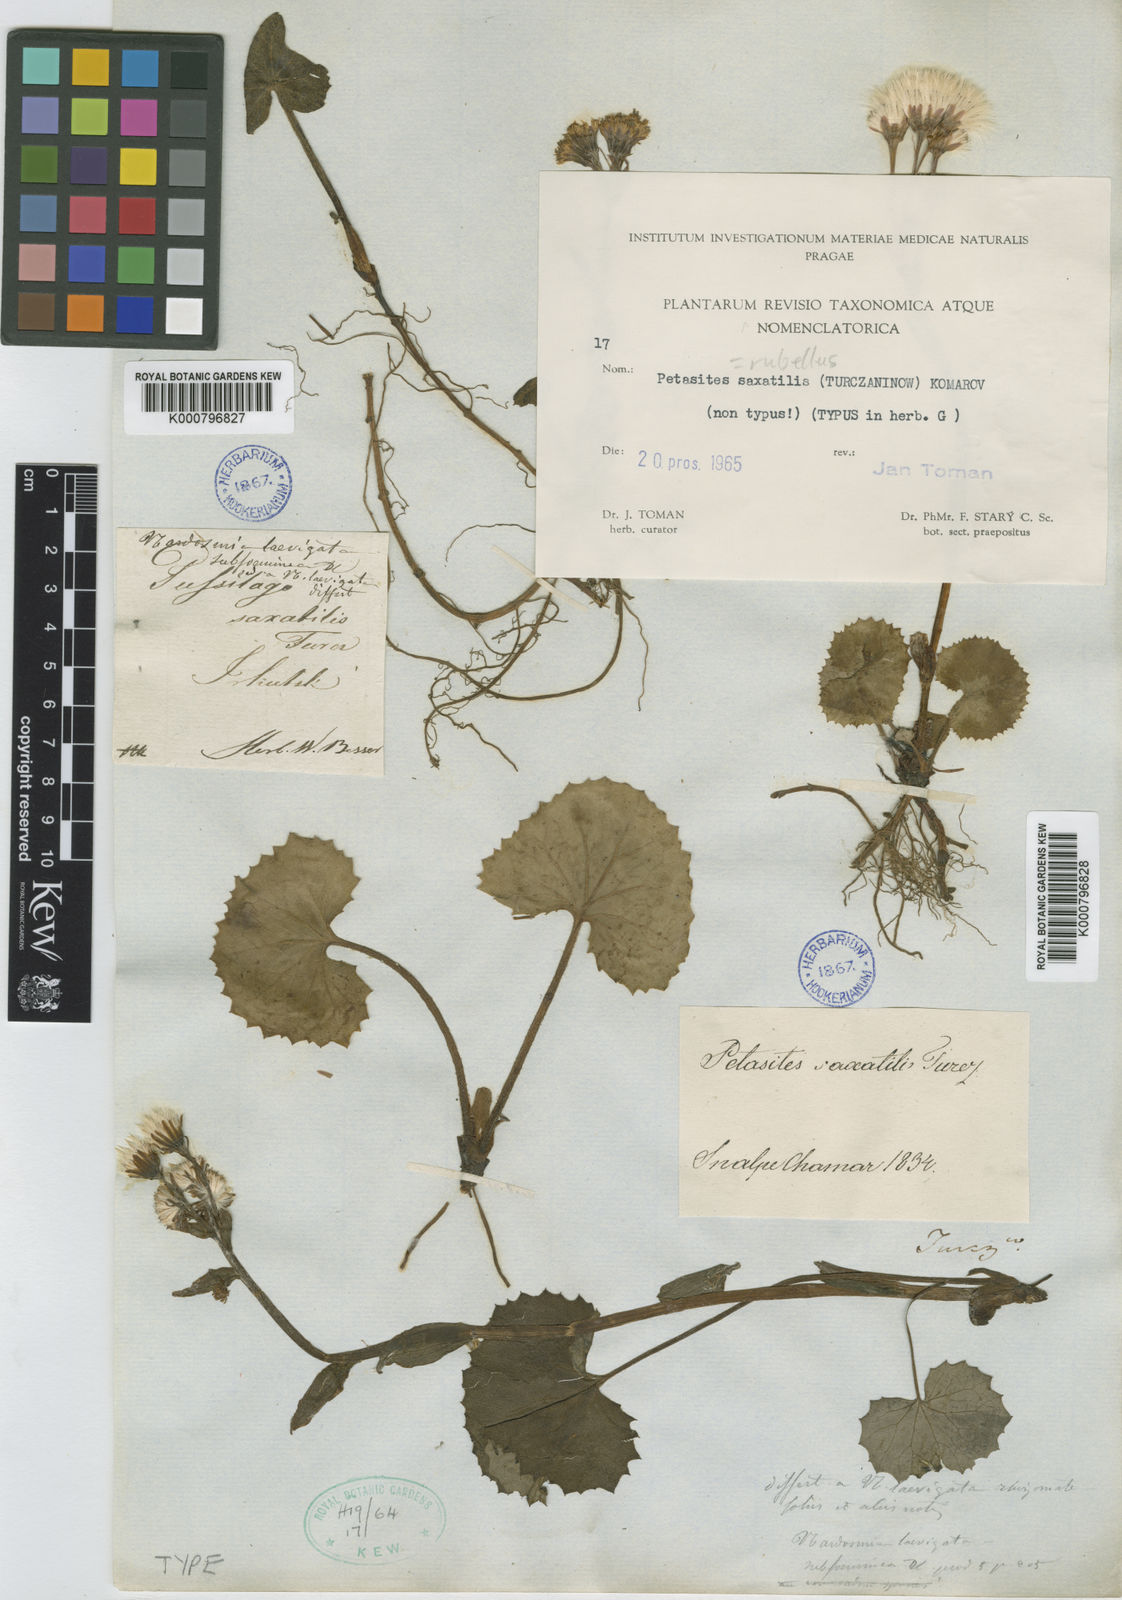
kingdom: Plantae
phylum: Tracheophyta
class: Magnoliopsida
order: Asterales
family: Asteraceae
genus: Petasites
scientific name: Petasites rubellus
